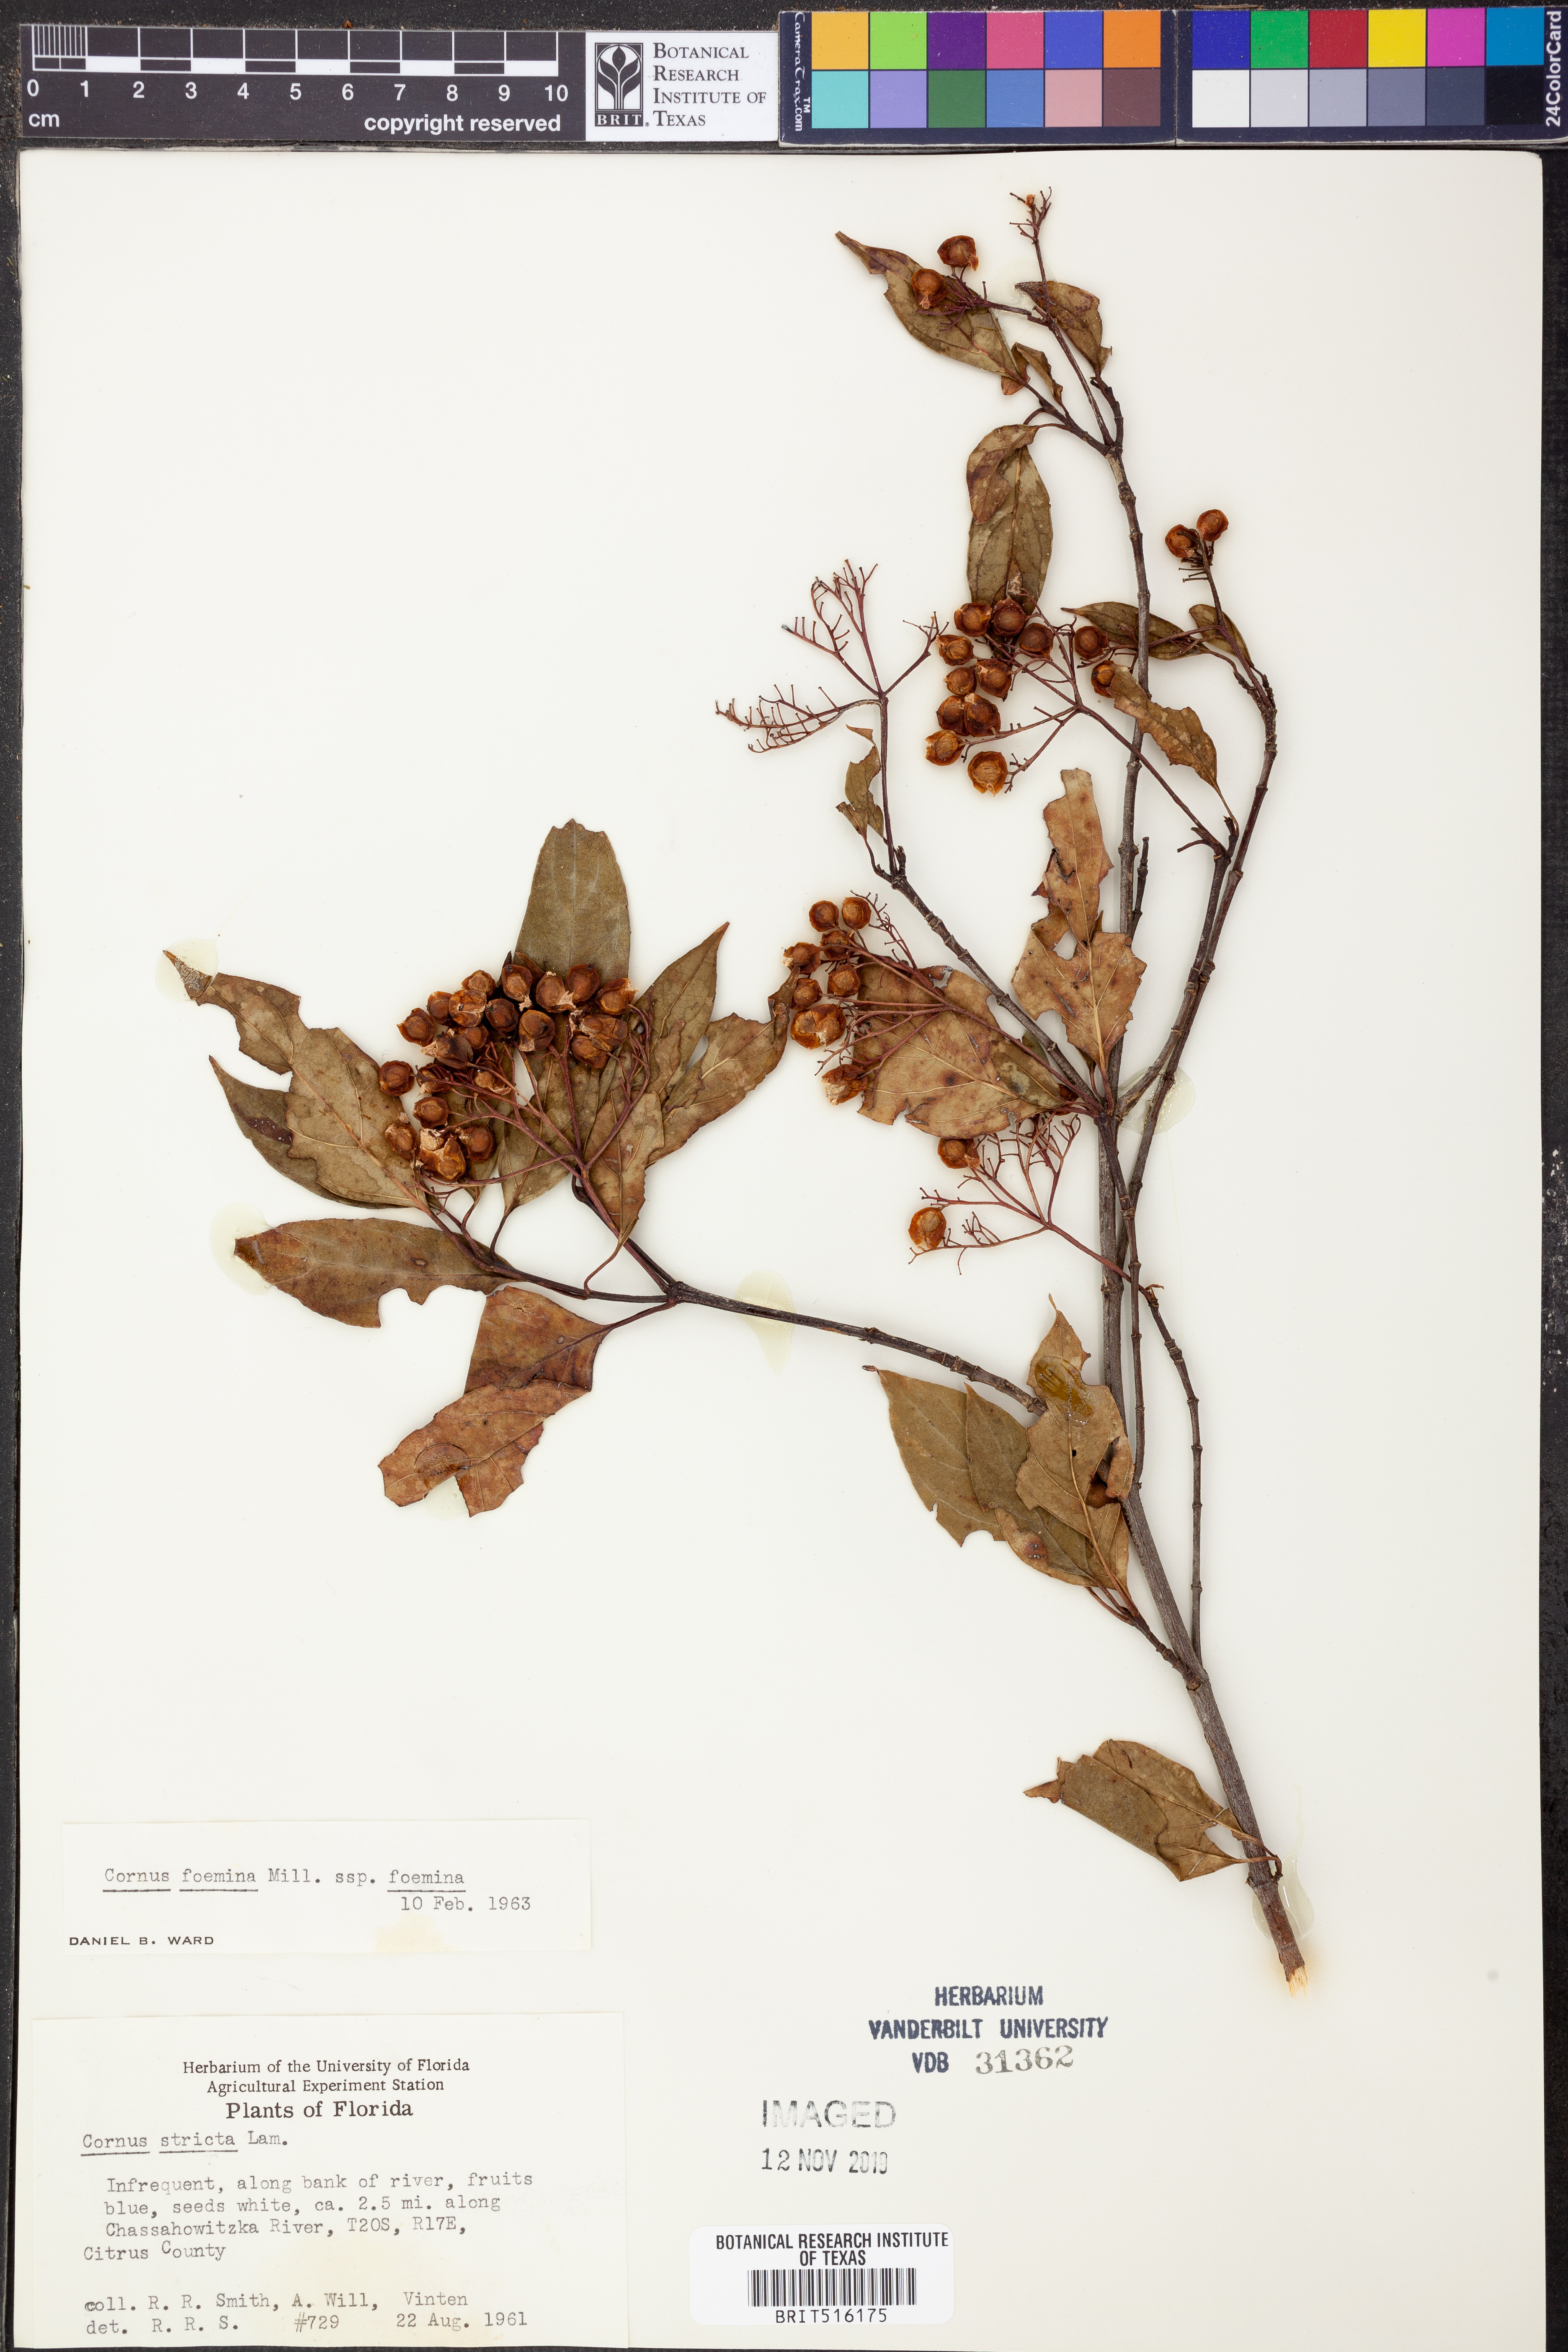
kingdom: Plantae
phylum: Tracheophyta
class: Magnoliopsida
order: Cornales
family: Cornaceae
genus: Cornus
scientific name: Cornus foemina
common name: Swamp dogwood
